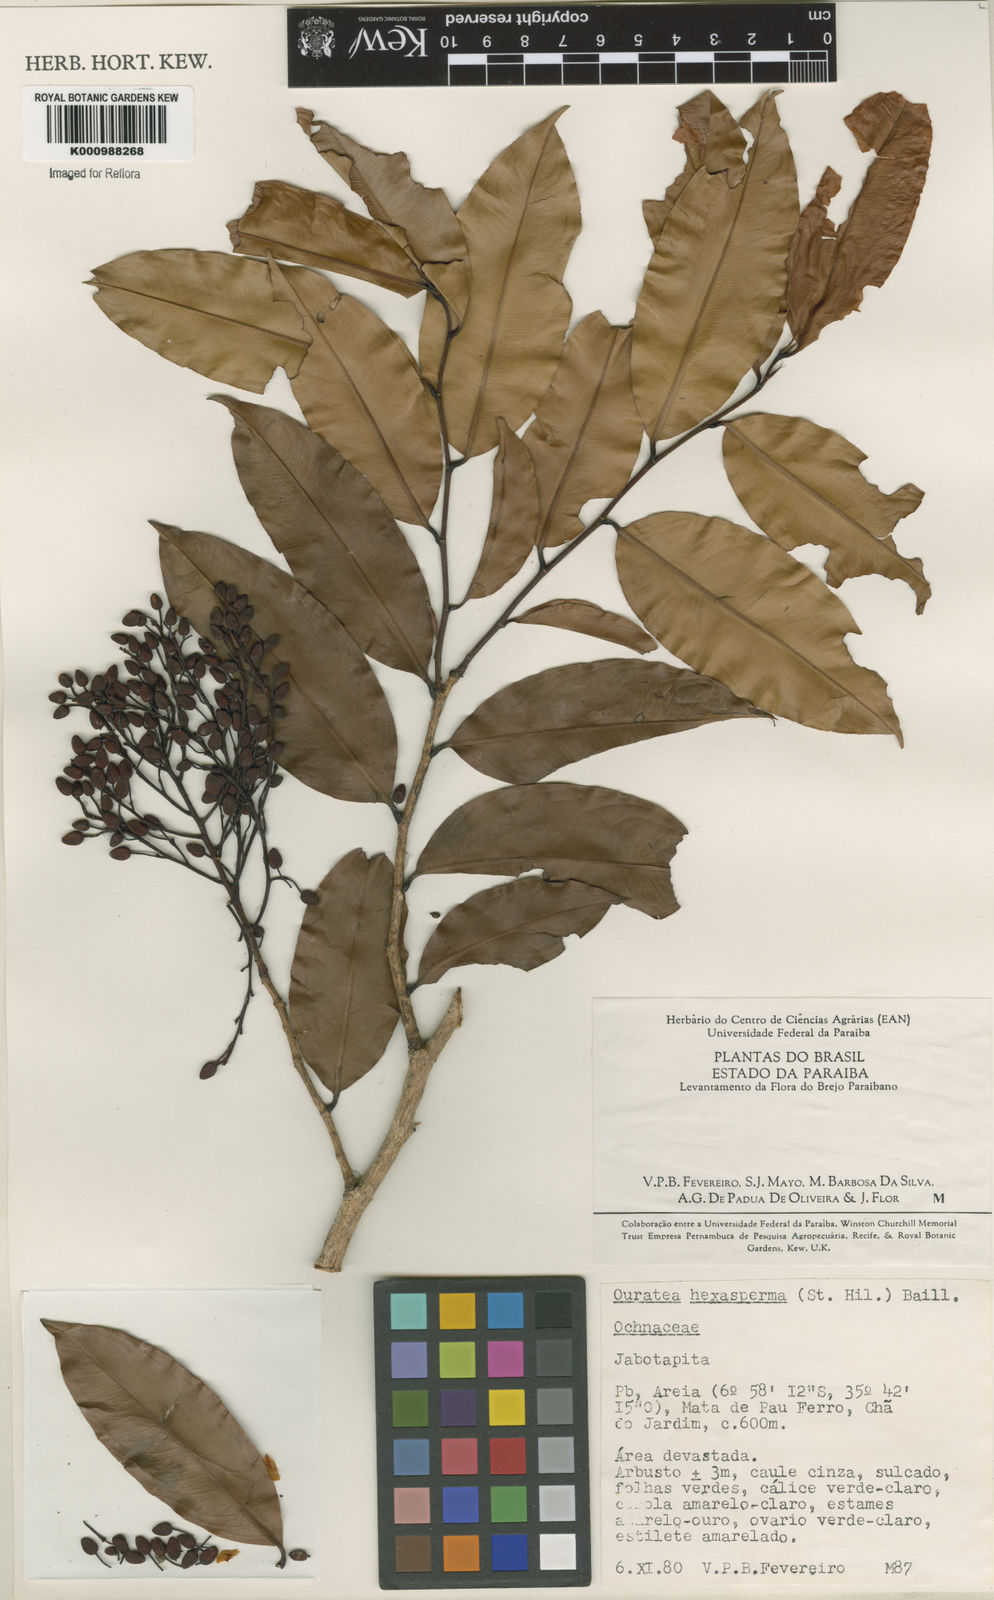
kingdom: Plantae
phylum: Tracheophyta
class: Magnoliopsida
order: Malpighiales
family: Ochnaceae
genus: Ouratea
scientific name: Ouratea hexasperma
